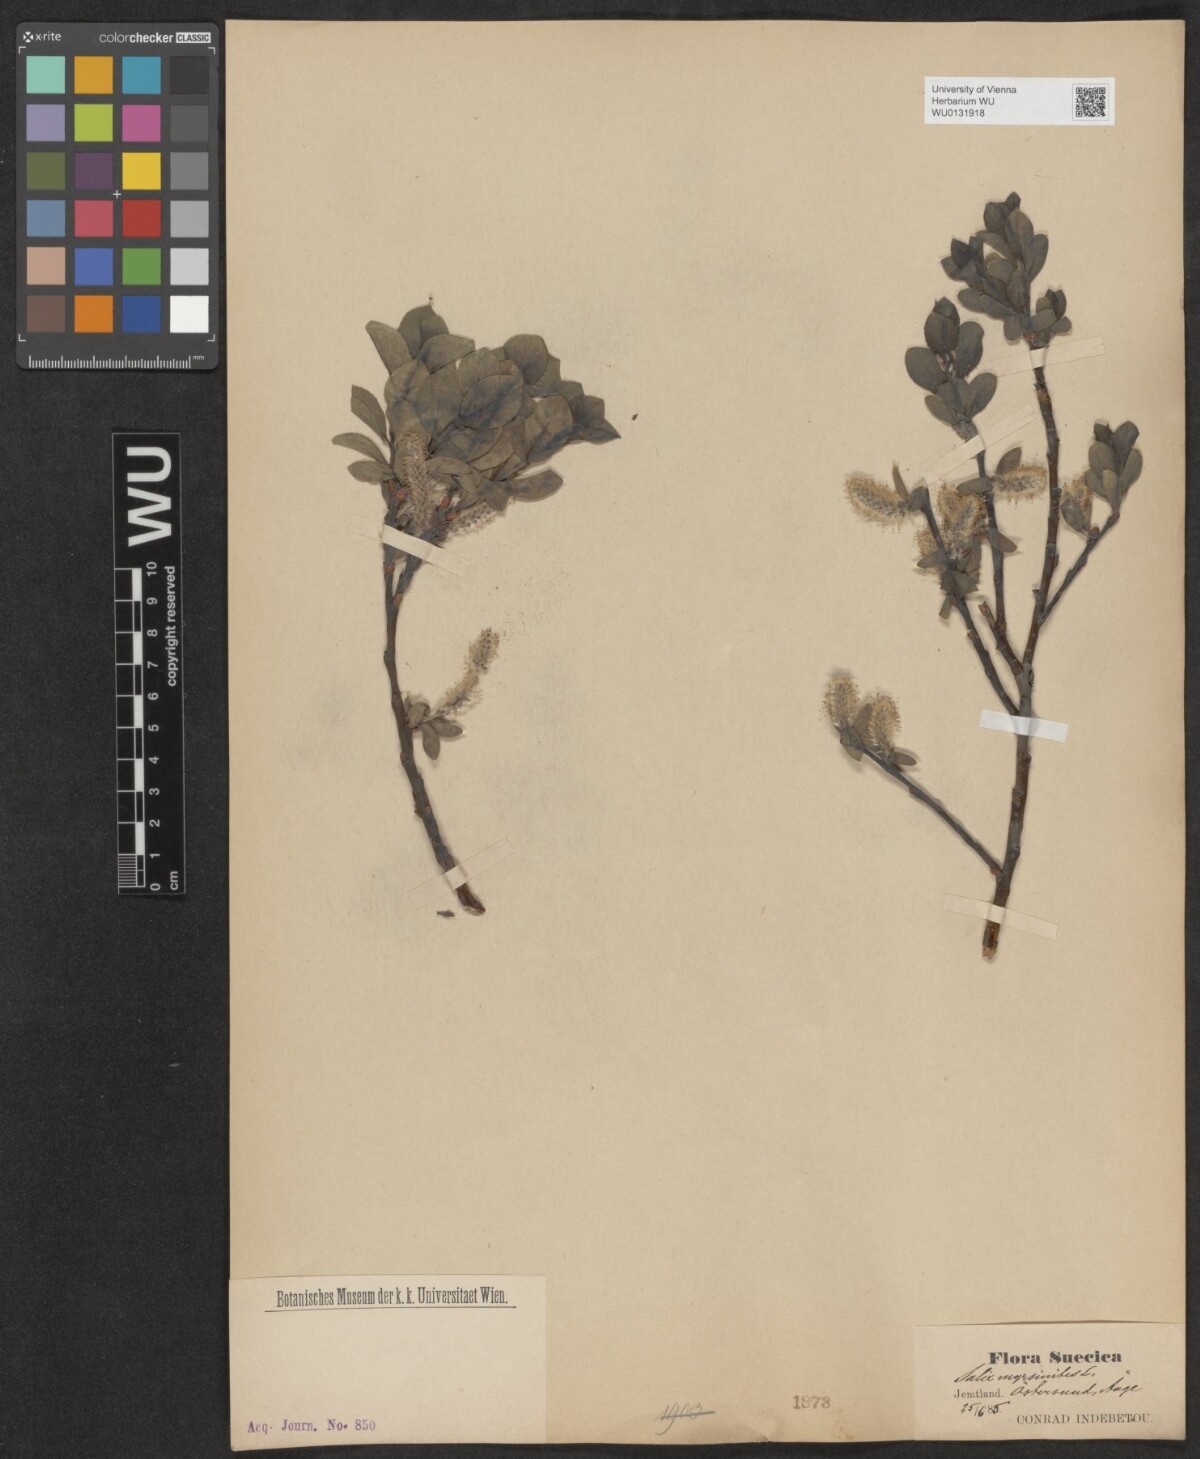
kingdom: Plantae
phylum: Tracheophyta
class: Magnoliopsida
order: Malpighiales
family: Salicaceae
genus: Salix
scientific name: Salix myrsinites
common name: Myrtle willow
